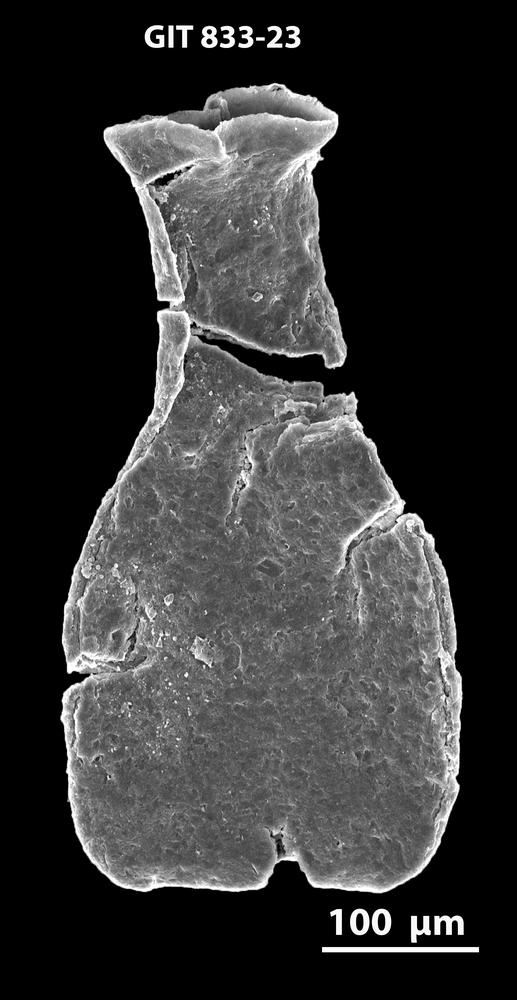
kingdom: Animalia
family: Lagenochitinidae
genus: Lagenochitina
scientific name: Lagenochitina
